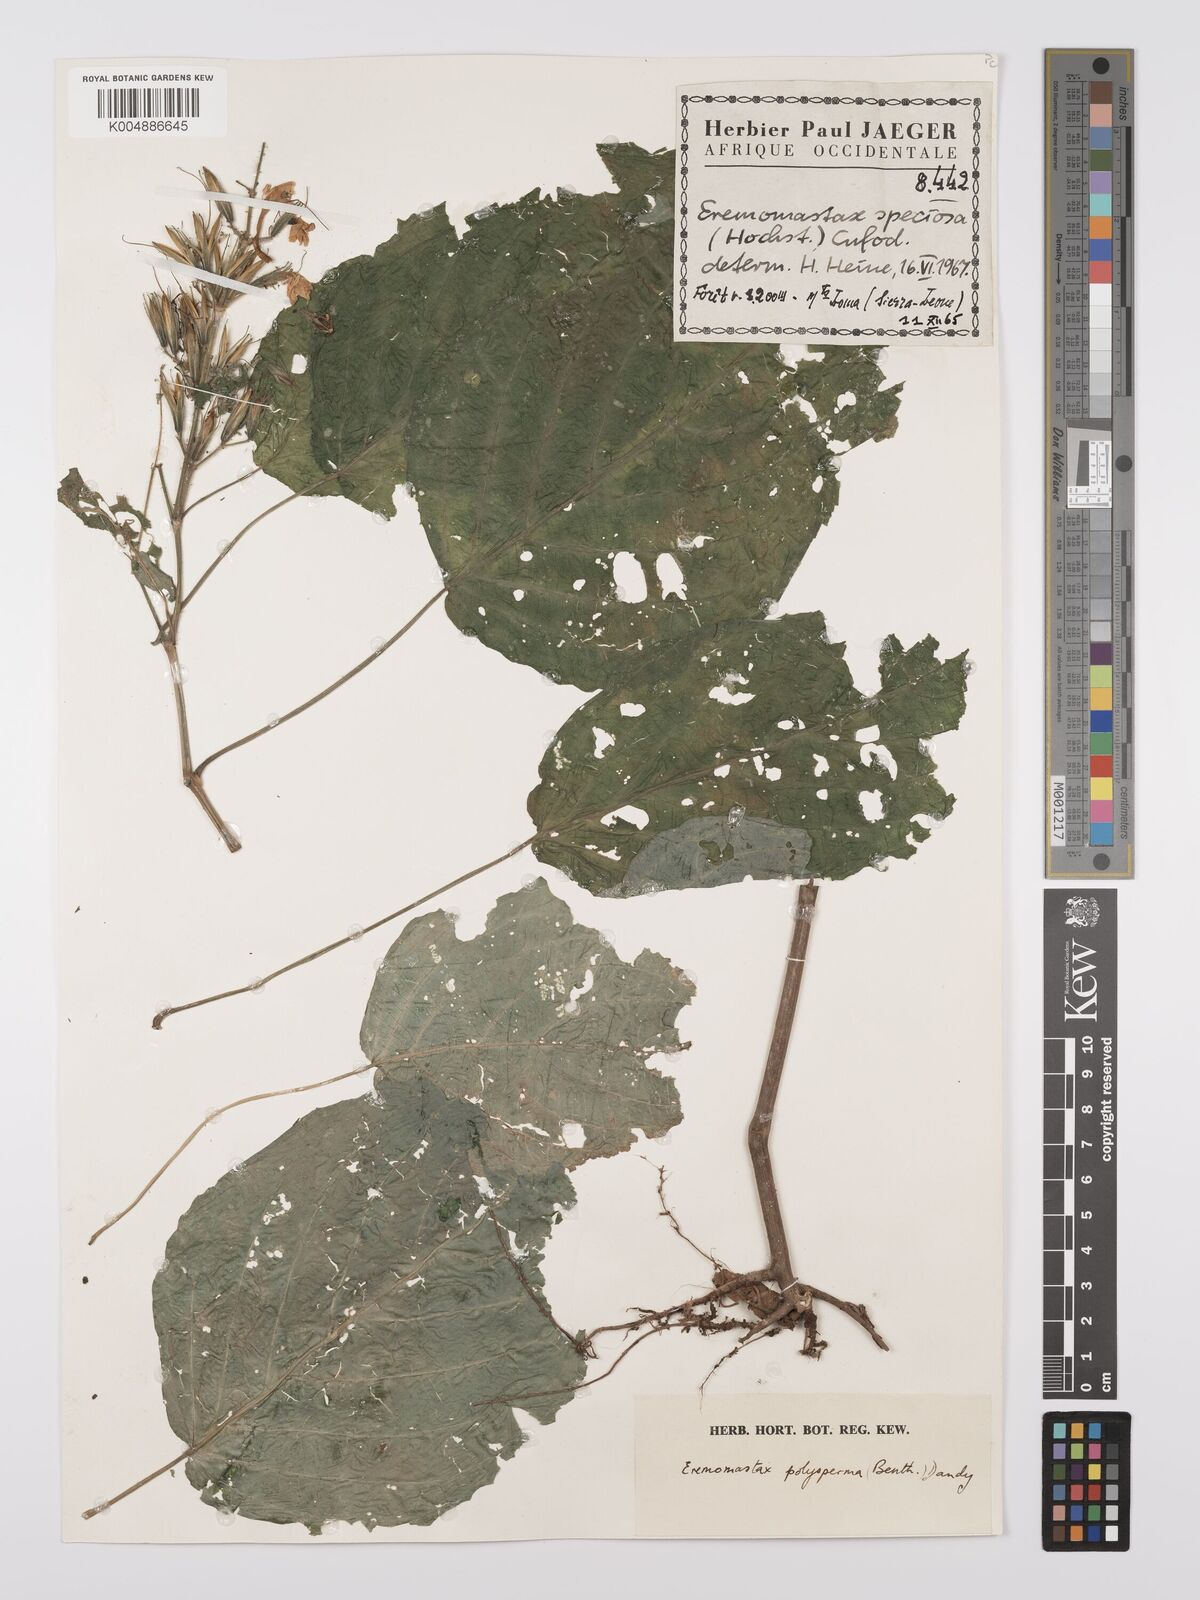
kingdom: Plantae
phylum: Tracheophyta
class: Magnoliopsida
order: Lamiales
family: Acanthaceae
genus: Eremomastax
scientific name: Eremomastax speciosa
